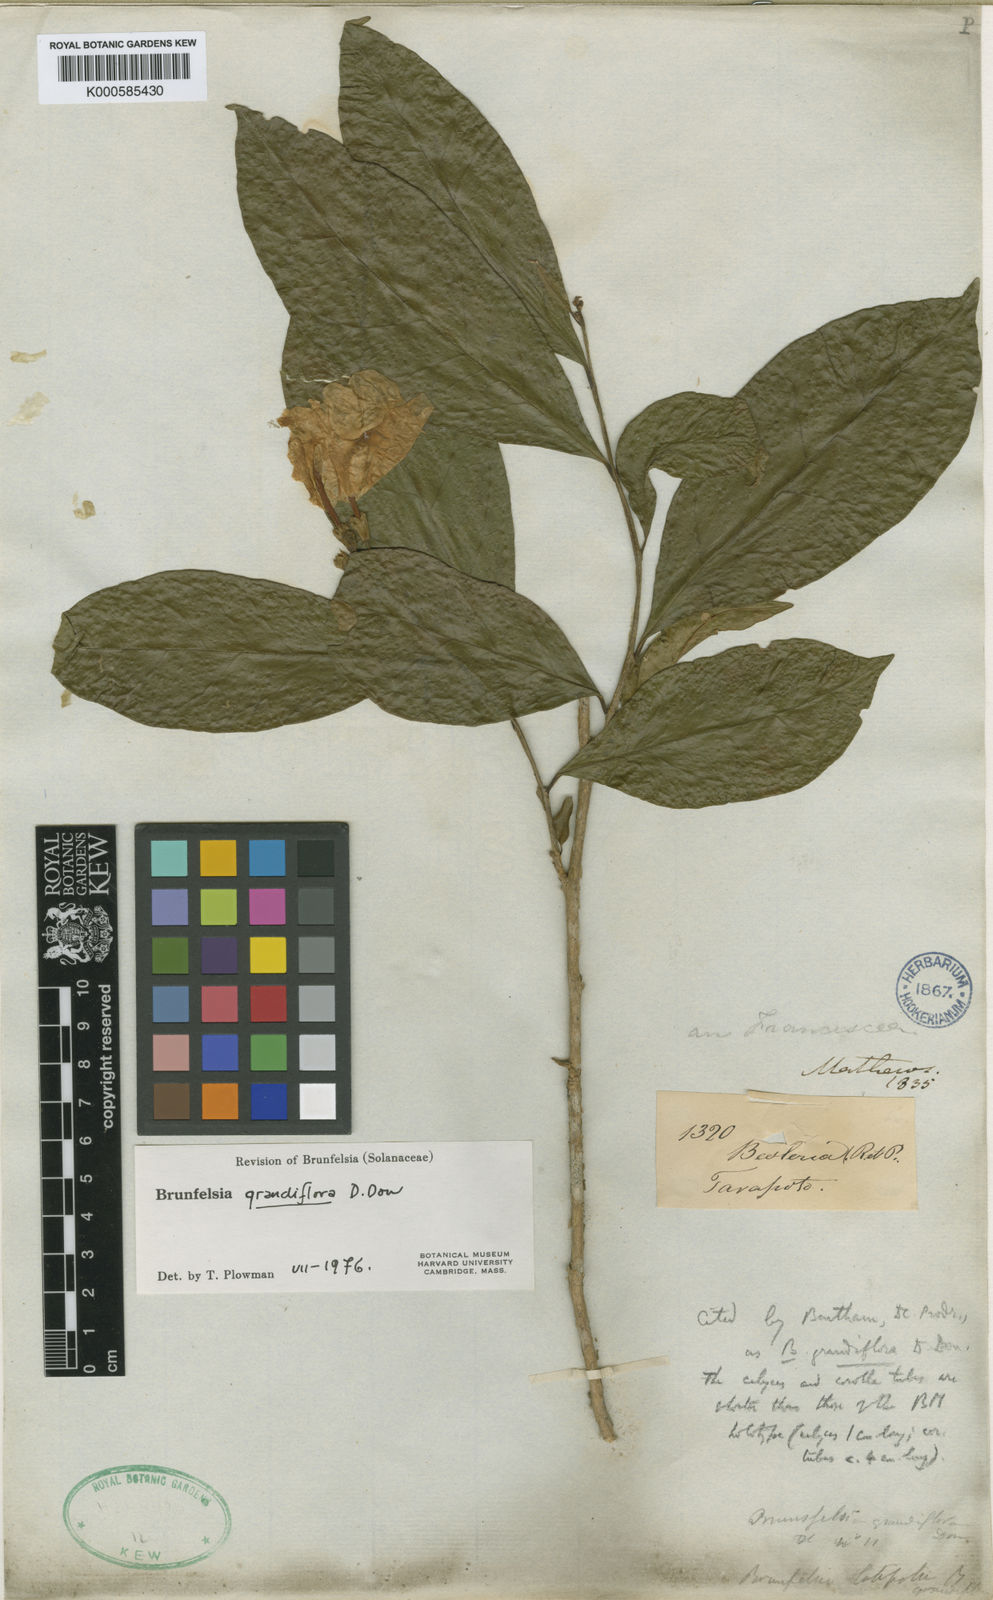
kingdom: Plantae
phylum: Tracheophyta
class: Magnoliopsida
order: Solanales
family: Solanaceae
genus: Brunfelsia
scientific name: Brunfelsia grandiflora
